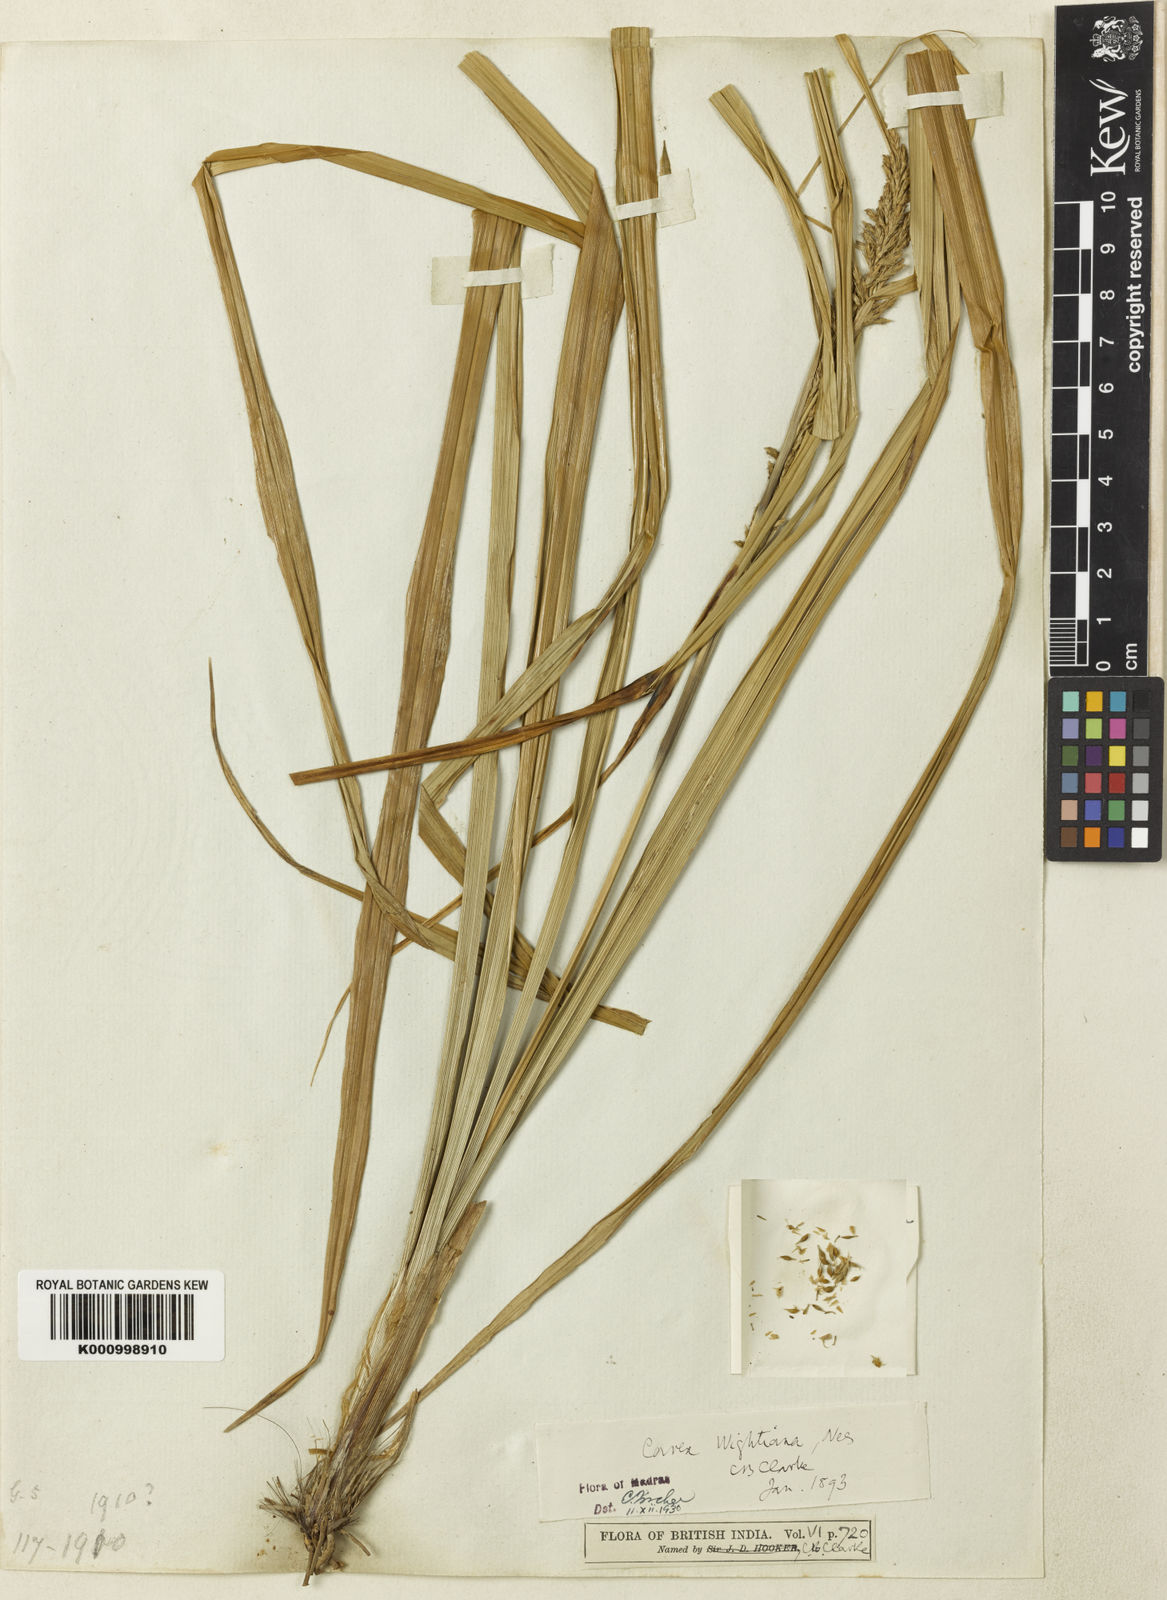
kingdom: Plantae
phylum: Tracheophyta
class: Liliopsida
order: Poales
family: Cyperaceae
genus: Carex
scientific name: Carex wightiana
